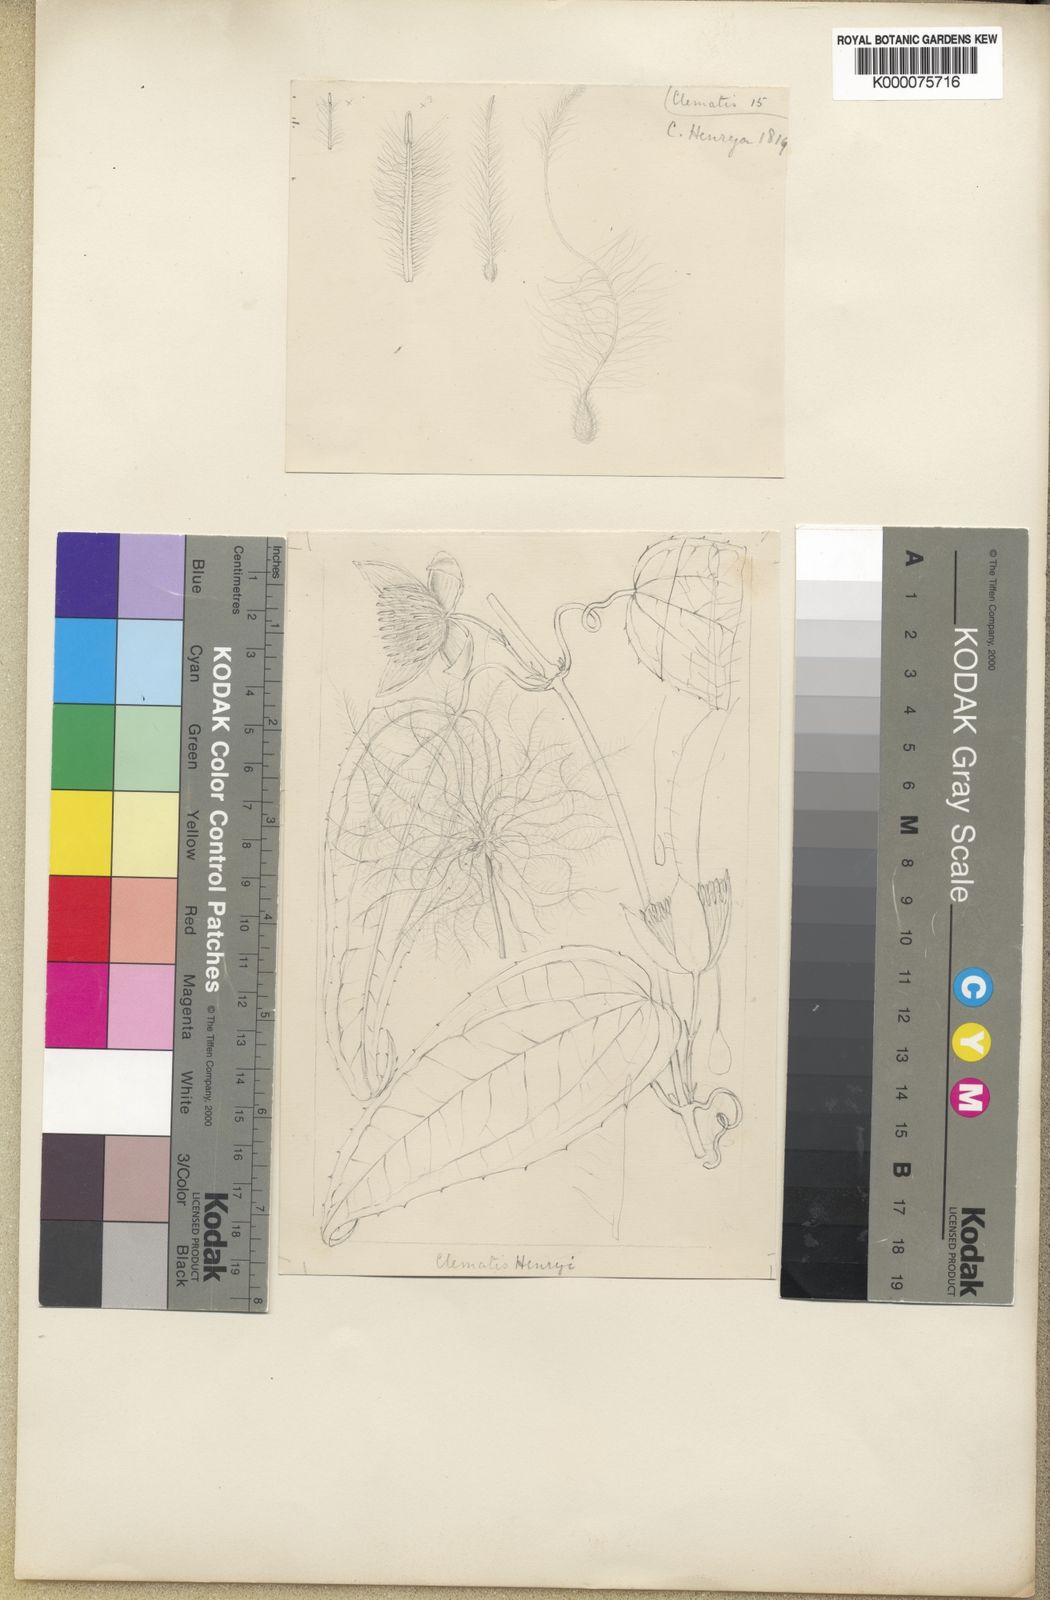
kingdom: Plantae
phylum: Tracheophyta
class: Magnoliopsida
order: Ranunculales
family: Ranunculaceae
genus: Clematis
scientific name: Clematis
